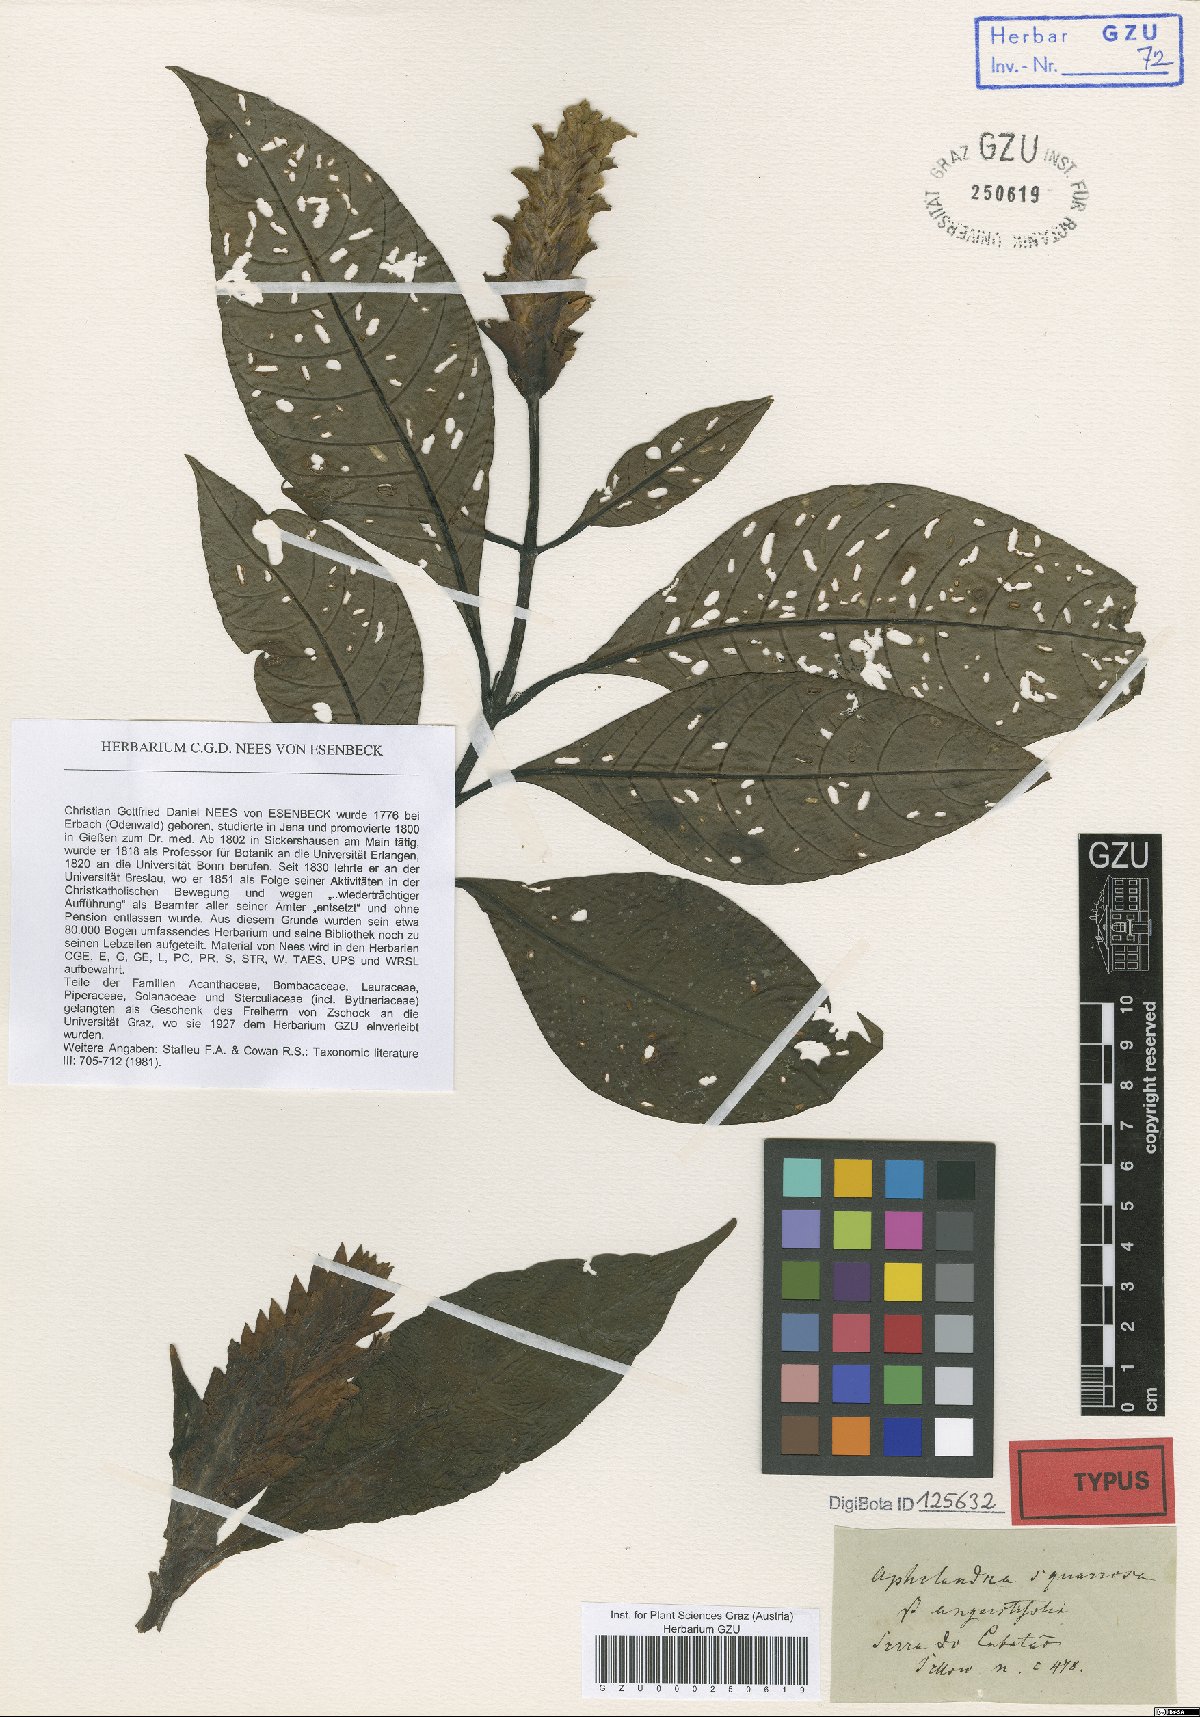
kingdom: Plantae
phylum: Tracheophyta
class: Magnoliopsida
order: Lamiales
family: Acanthaceae
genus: Aphelandra
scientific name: Aphelandra squarrosa
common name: Saffron spike
